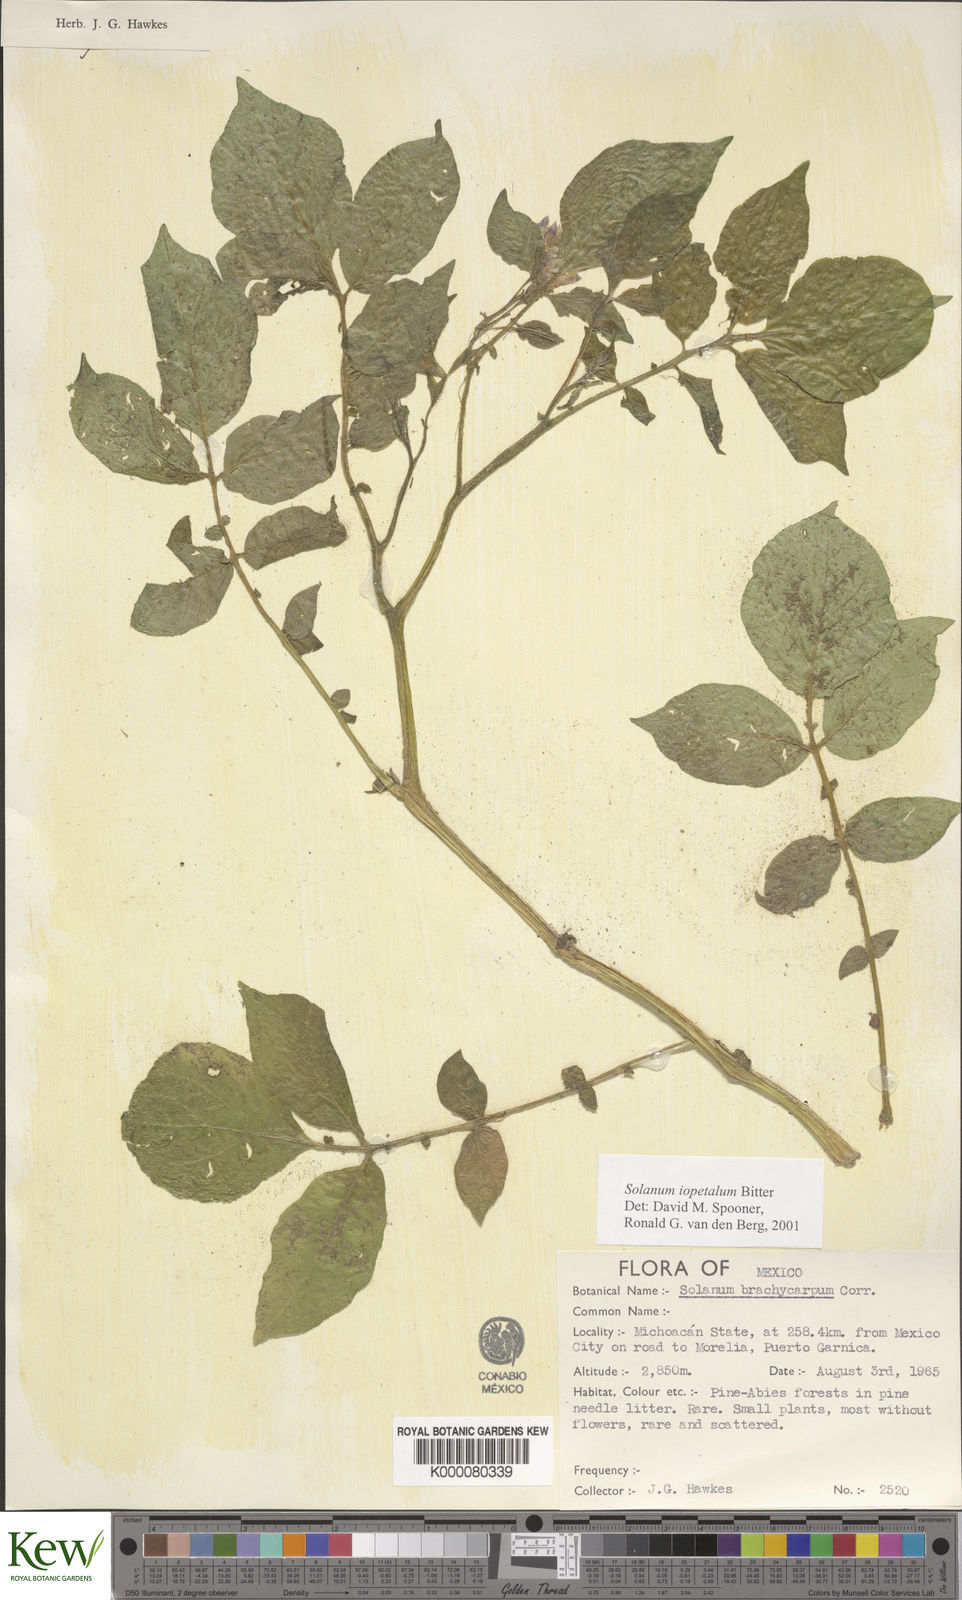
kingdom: Plantae
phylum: Tracheophyta
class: Magnoliopsida
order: Solanales
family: Solanaceae
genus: Solanum
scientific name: Solanum iopetalum
